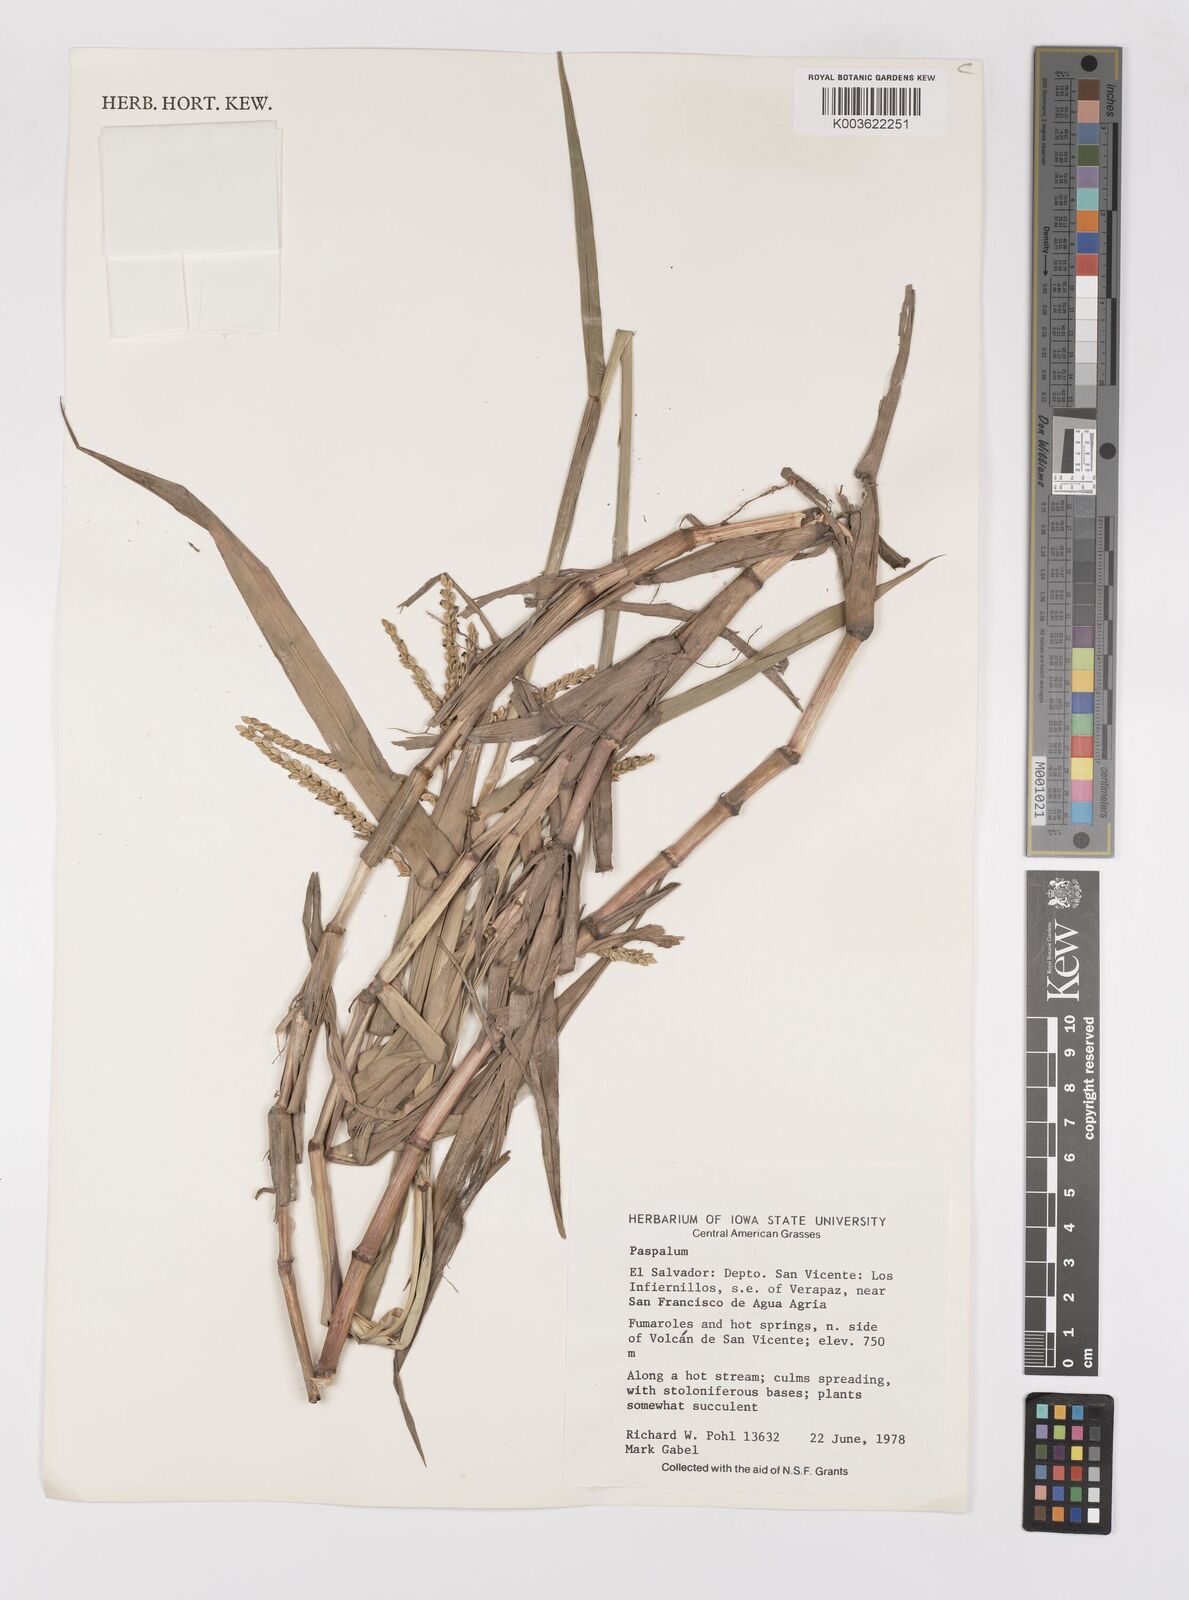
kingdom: Plantae
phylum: Tracheophyta
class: Liliopsida
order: Poales
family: Poaceae
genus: Paspalum
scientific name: Paspalum
